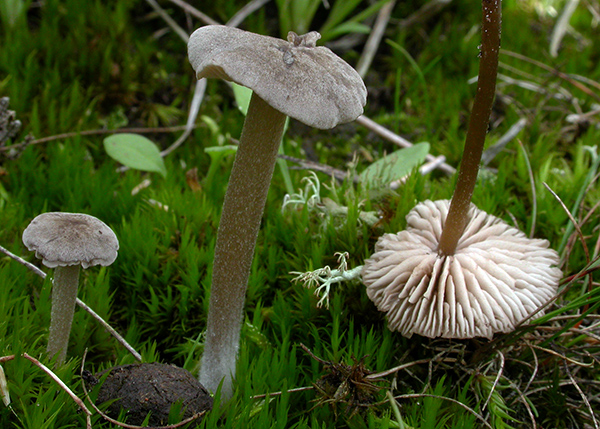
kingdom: Fungi
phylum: Basidiomycota
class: Agaricomycetes
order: Agaricales
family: Entolomataceae
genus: Entoloma
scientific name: Entoloma cuneatum
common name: dunstokket rødblad
